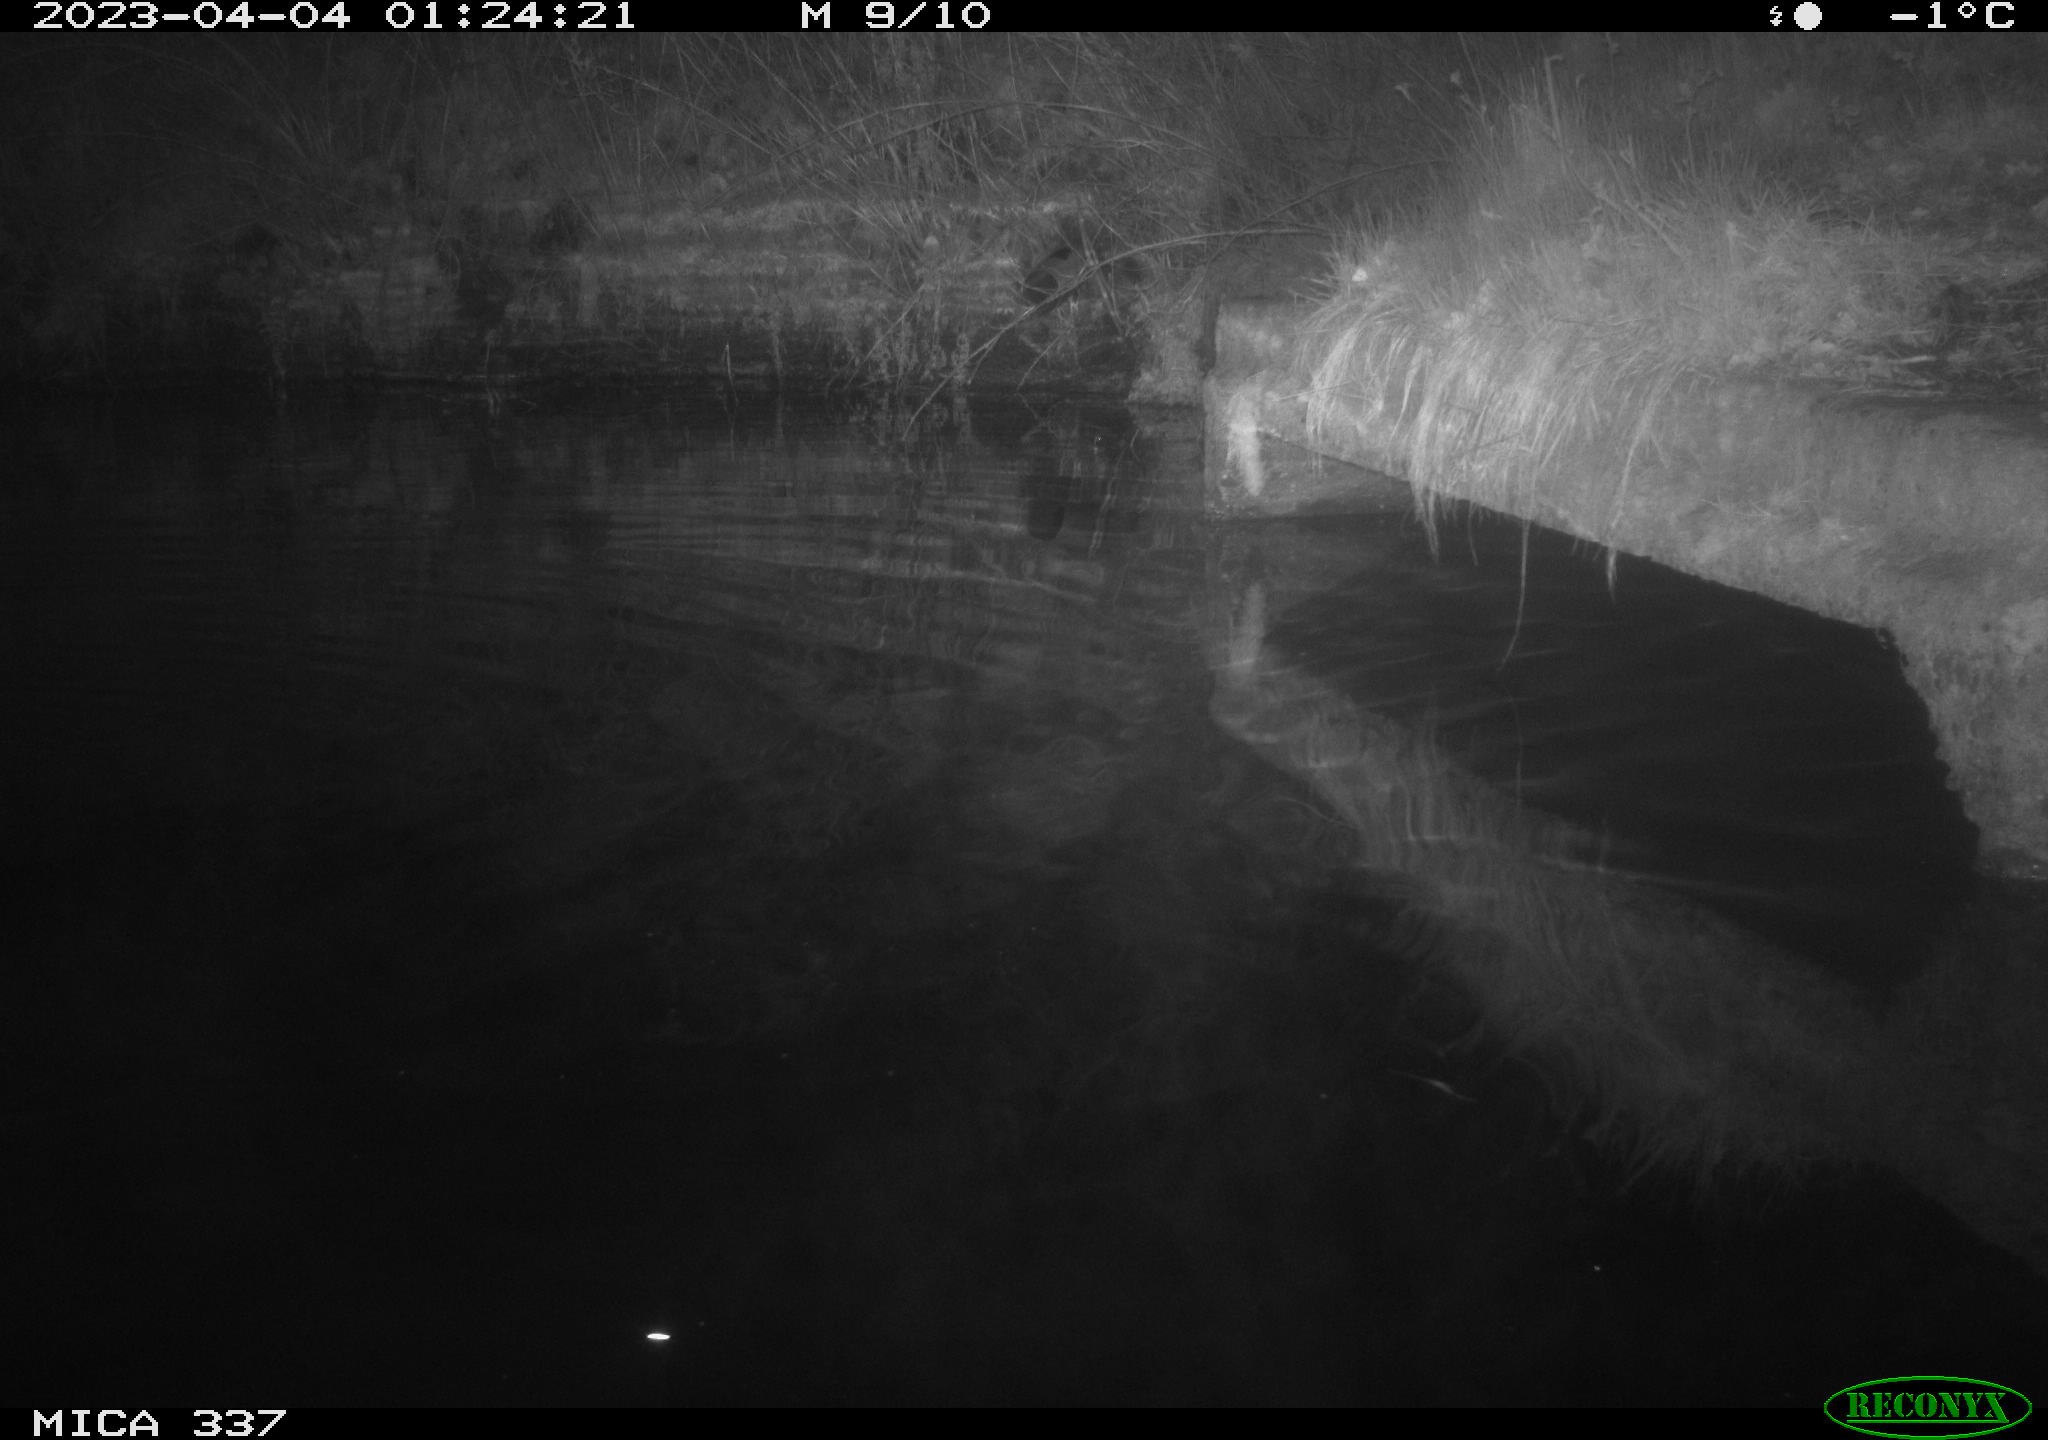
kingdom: Animalia
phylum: Chordata
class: Aves
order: Anseriformes
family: Anatidae
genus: Anas
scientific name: Anas platyrhynchos
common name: Mallard
